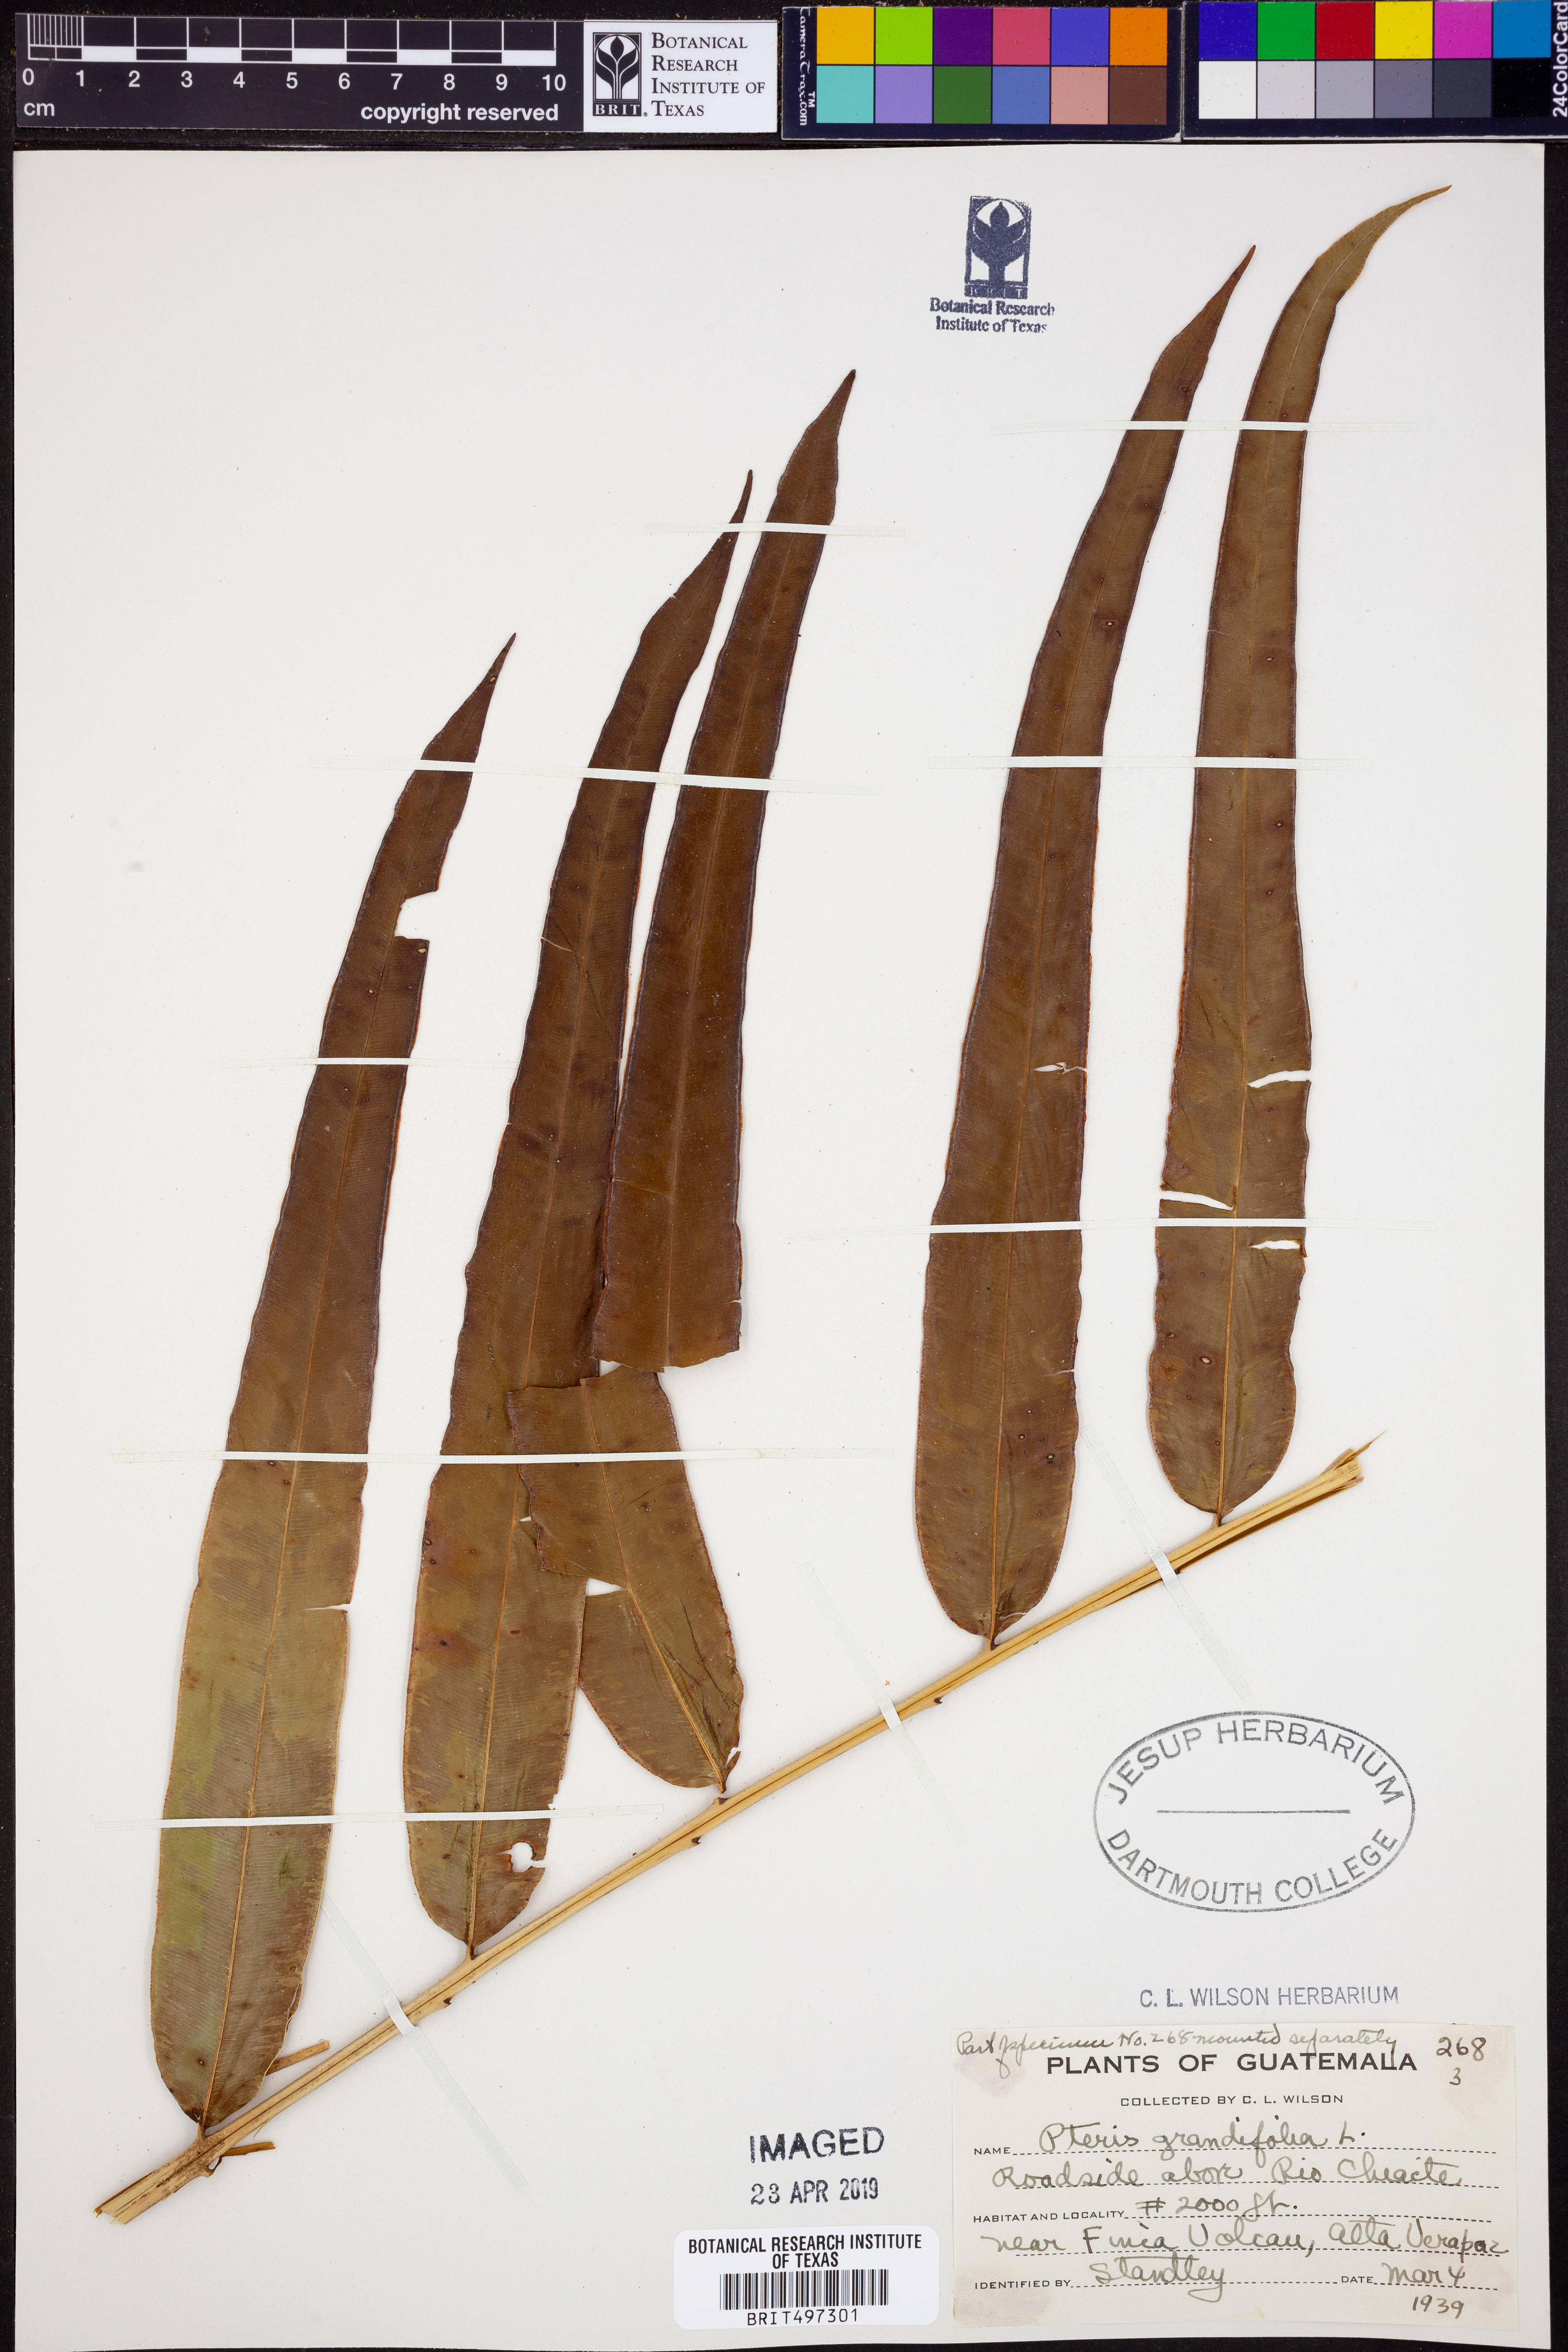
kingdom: Plantae
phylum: Tracheophyta
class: Polypodiopsida
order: Polypodiales
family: Pteridaceae
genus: Pteris
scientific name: Pteris grandifolia
